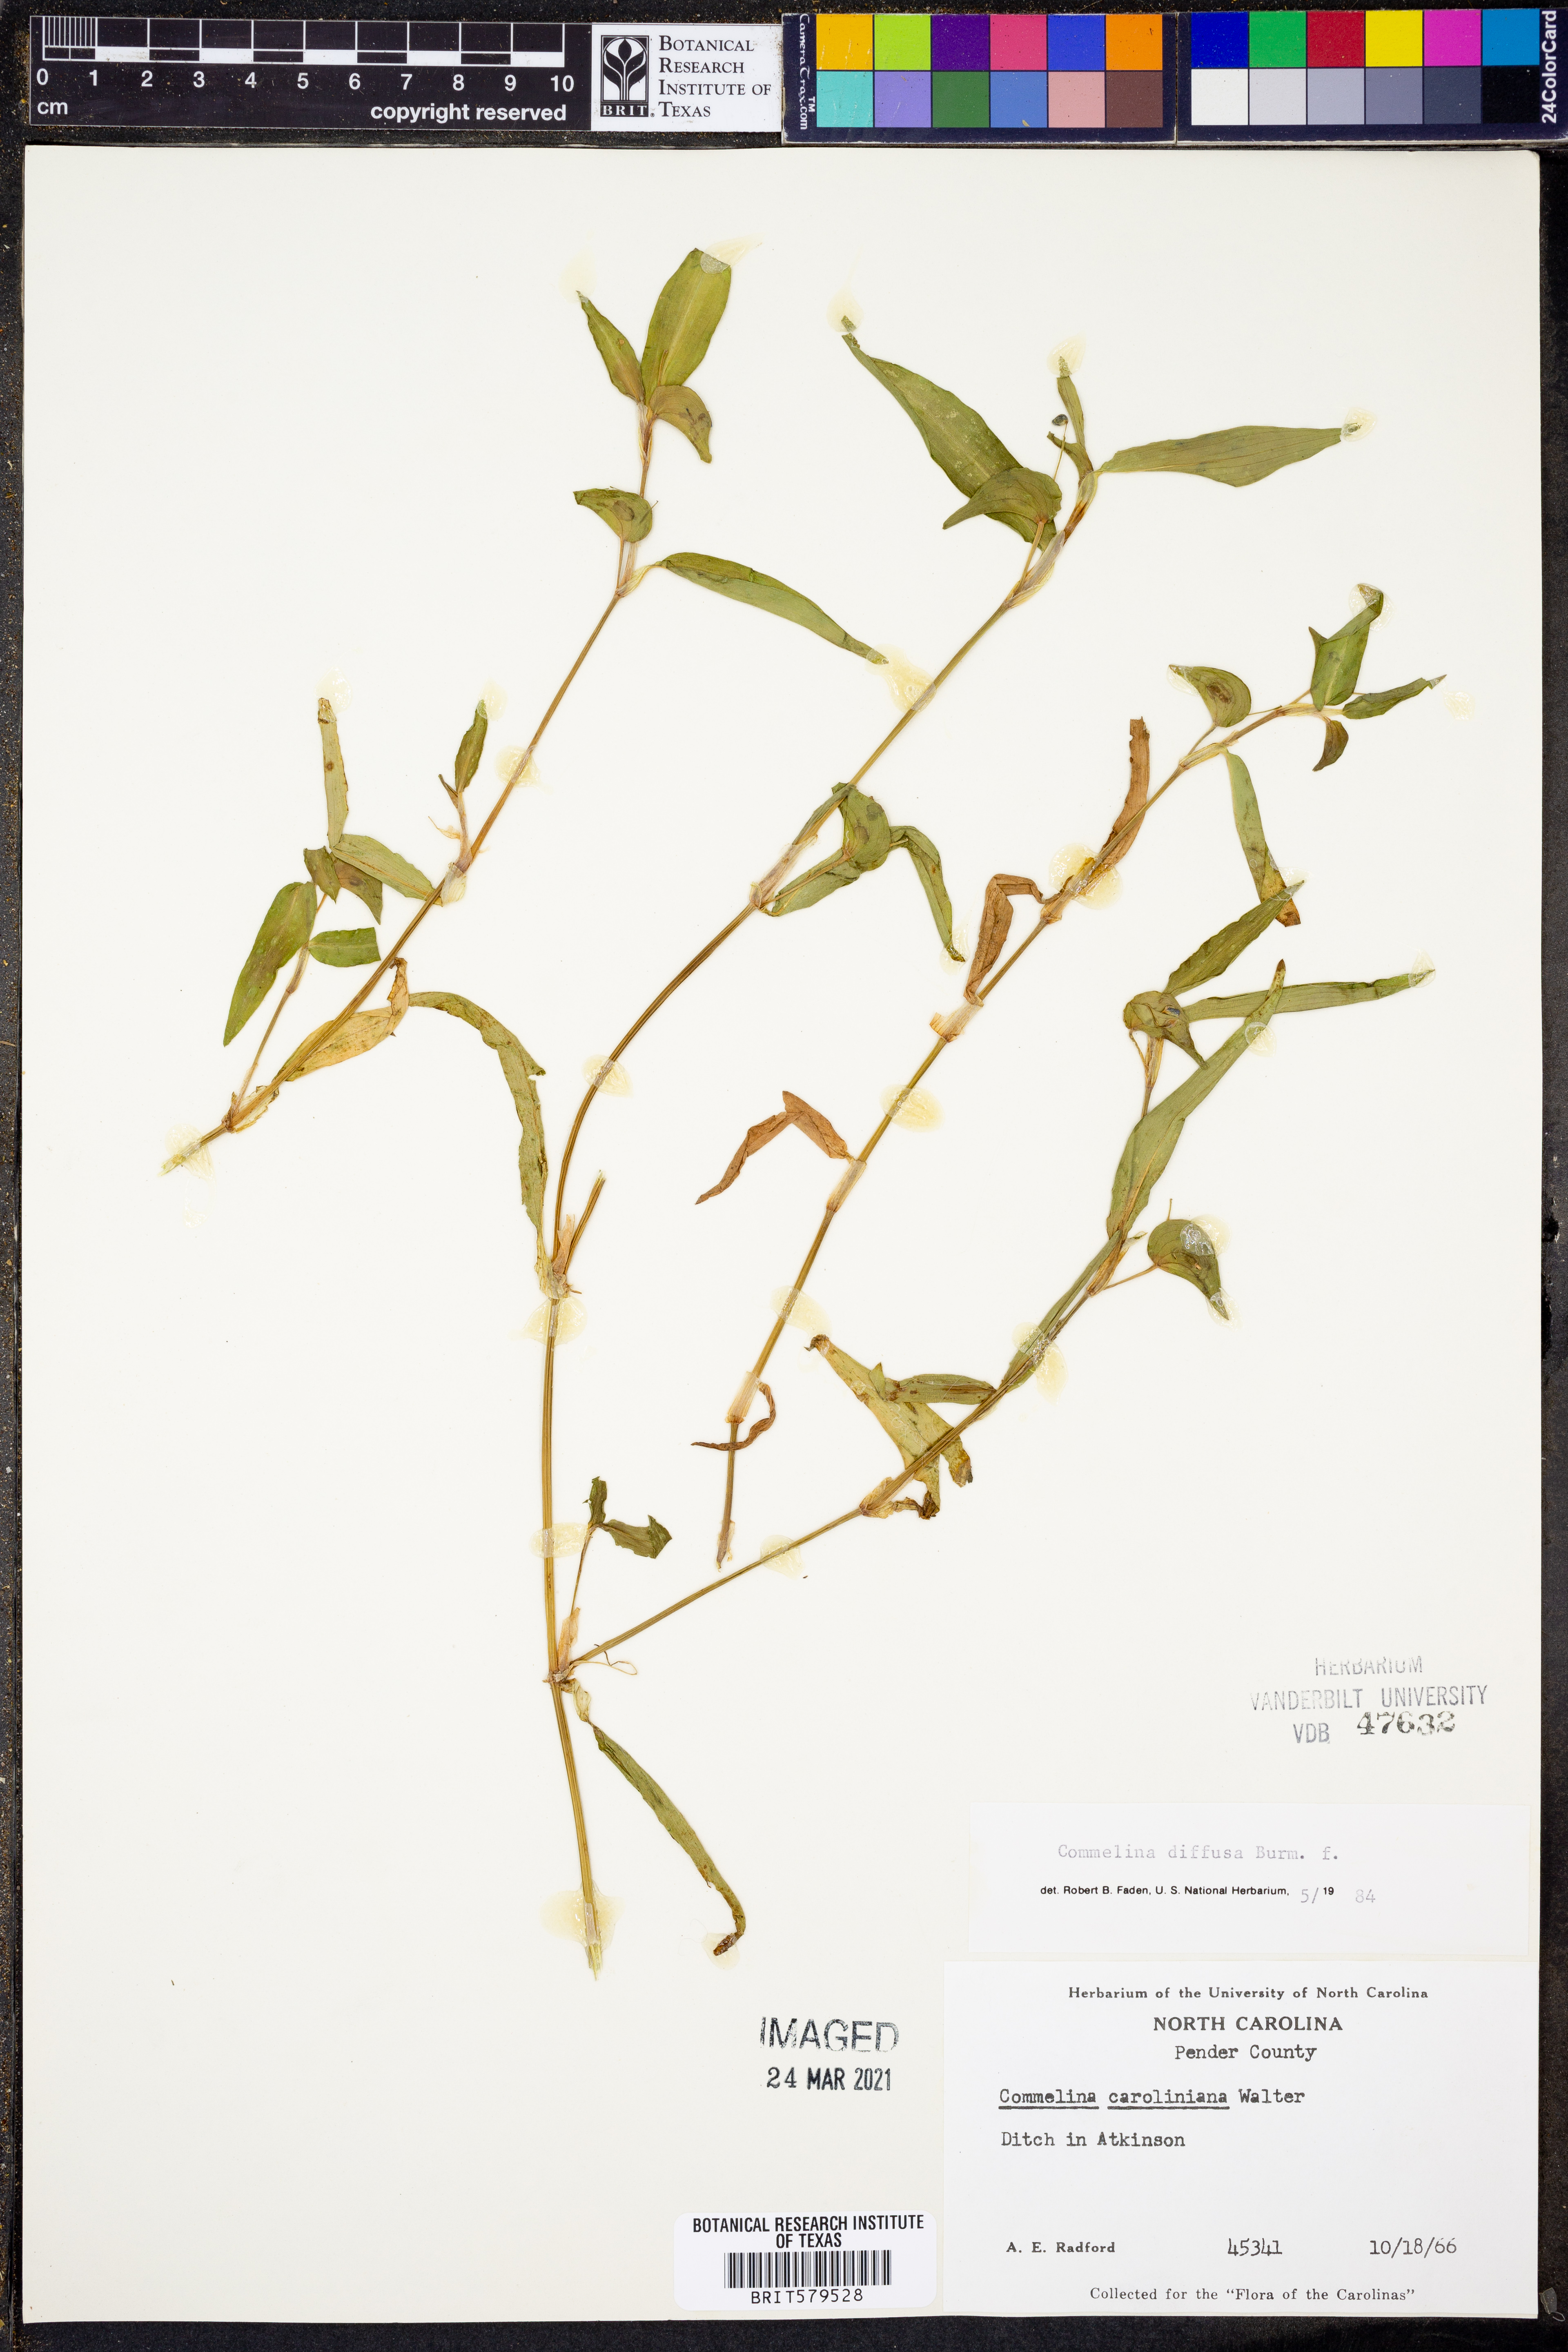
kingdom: Plantae
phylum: Tracheophyta
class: Liliopsida
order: Commelinales
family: Commelinaceae
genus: Commelina
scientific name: Commelina diffusa
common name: Climbing dayflower
